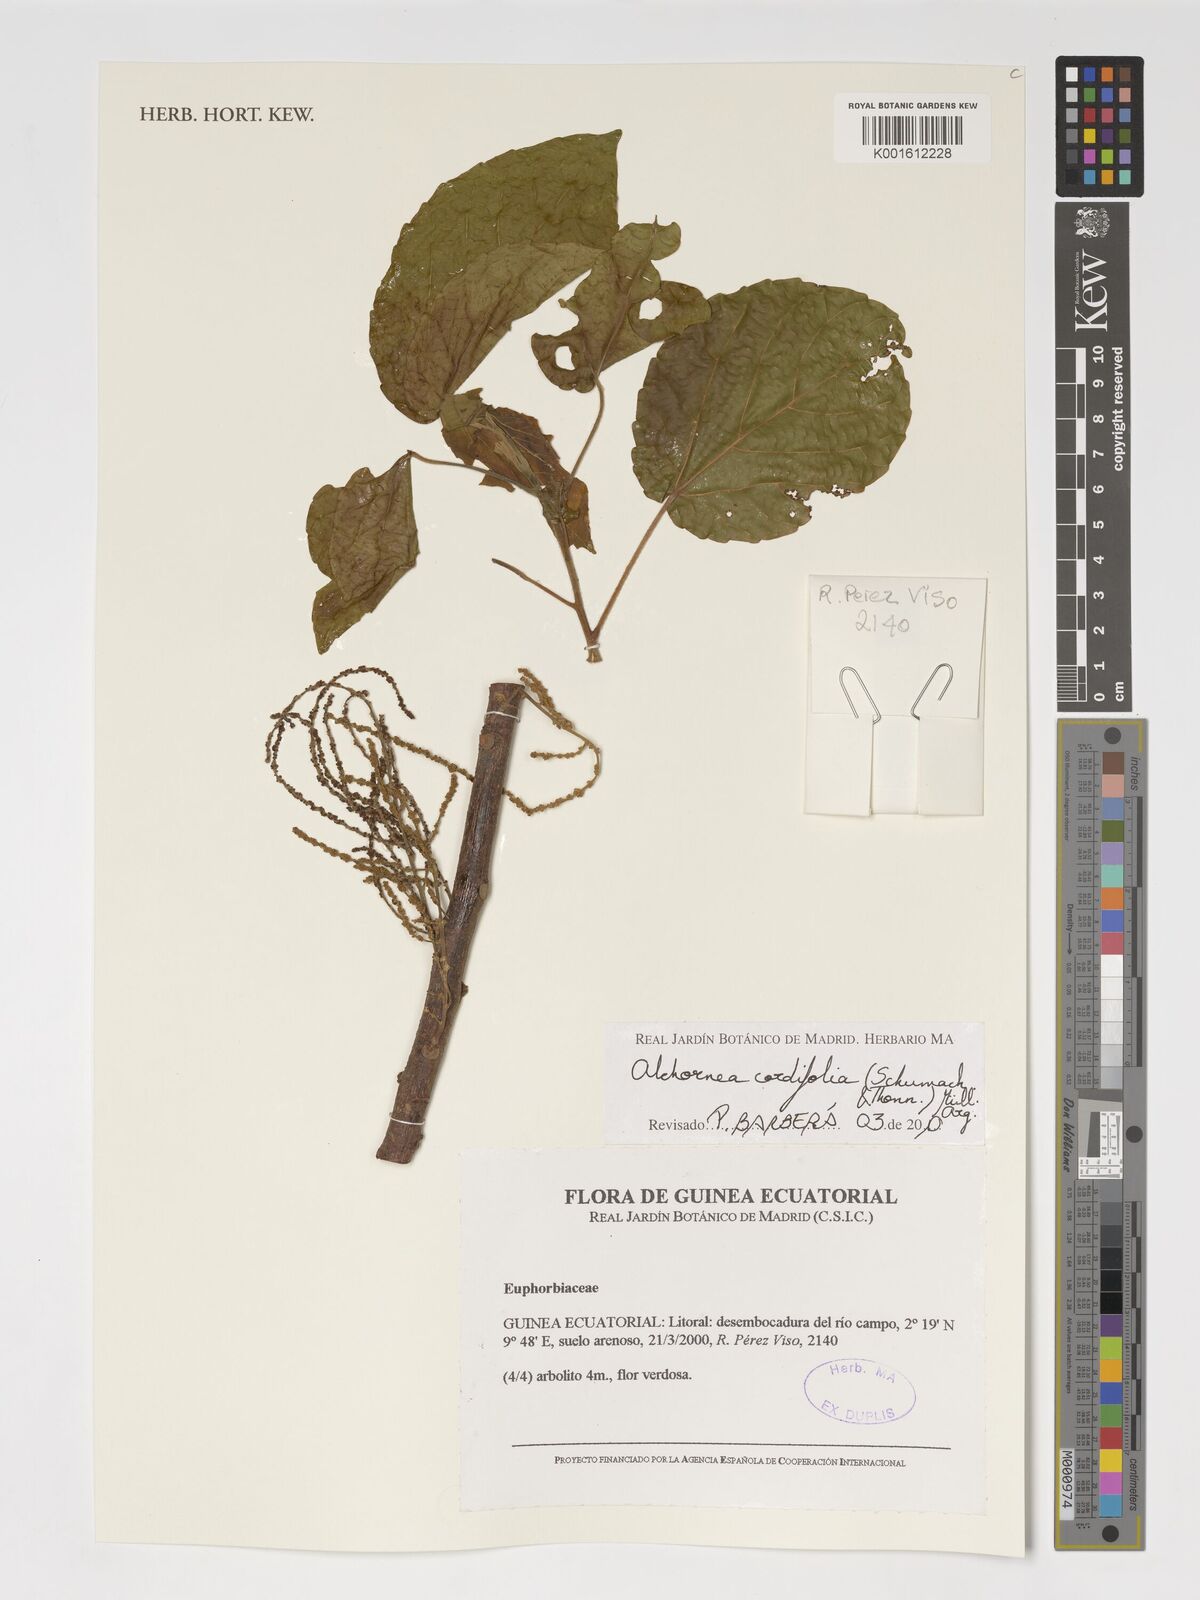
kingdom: Plantae
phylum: Tracheophyta
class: Magnoliopsida
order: Malpighiales
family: Euphorbiaceae
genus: Alchornea
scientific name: Alchornea cordifolia
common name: Christmasbush
